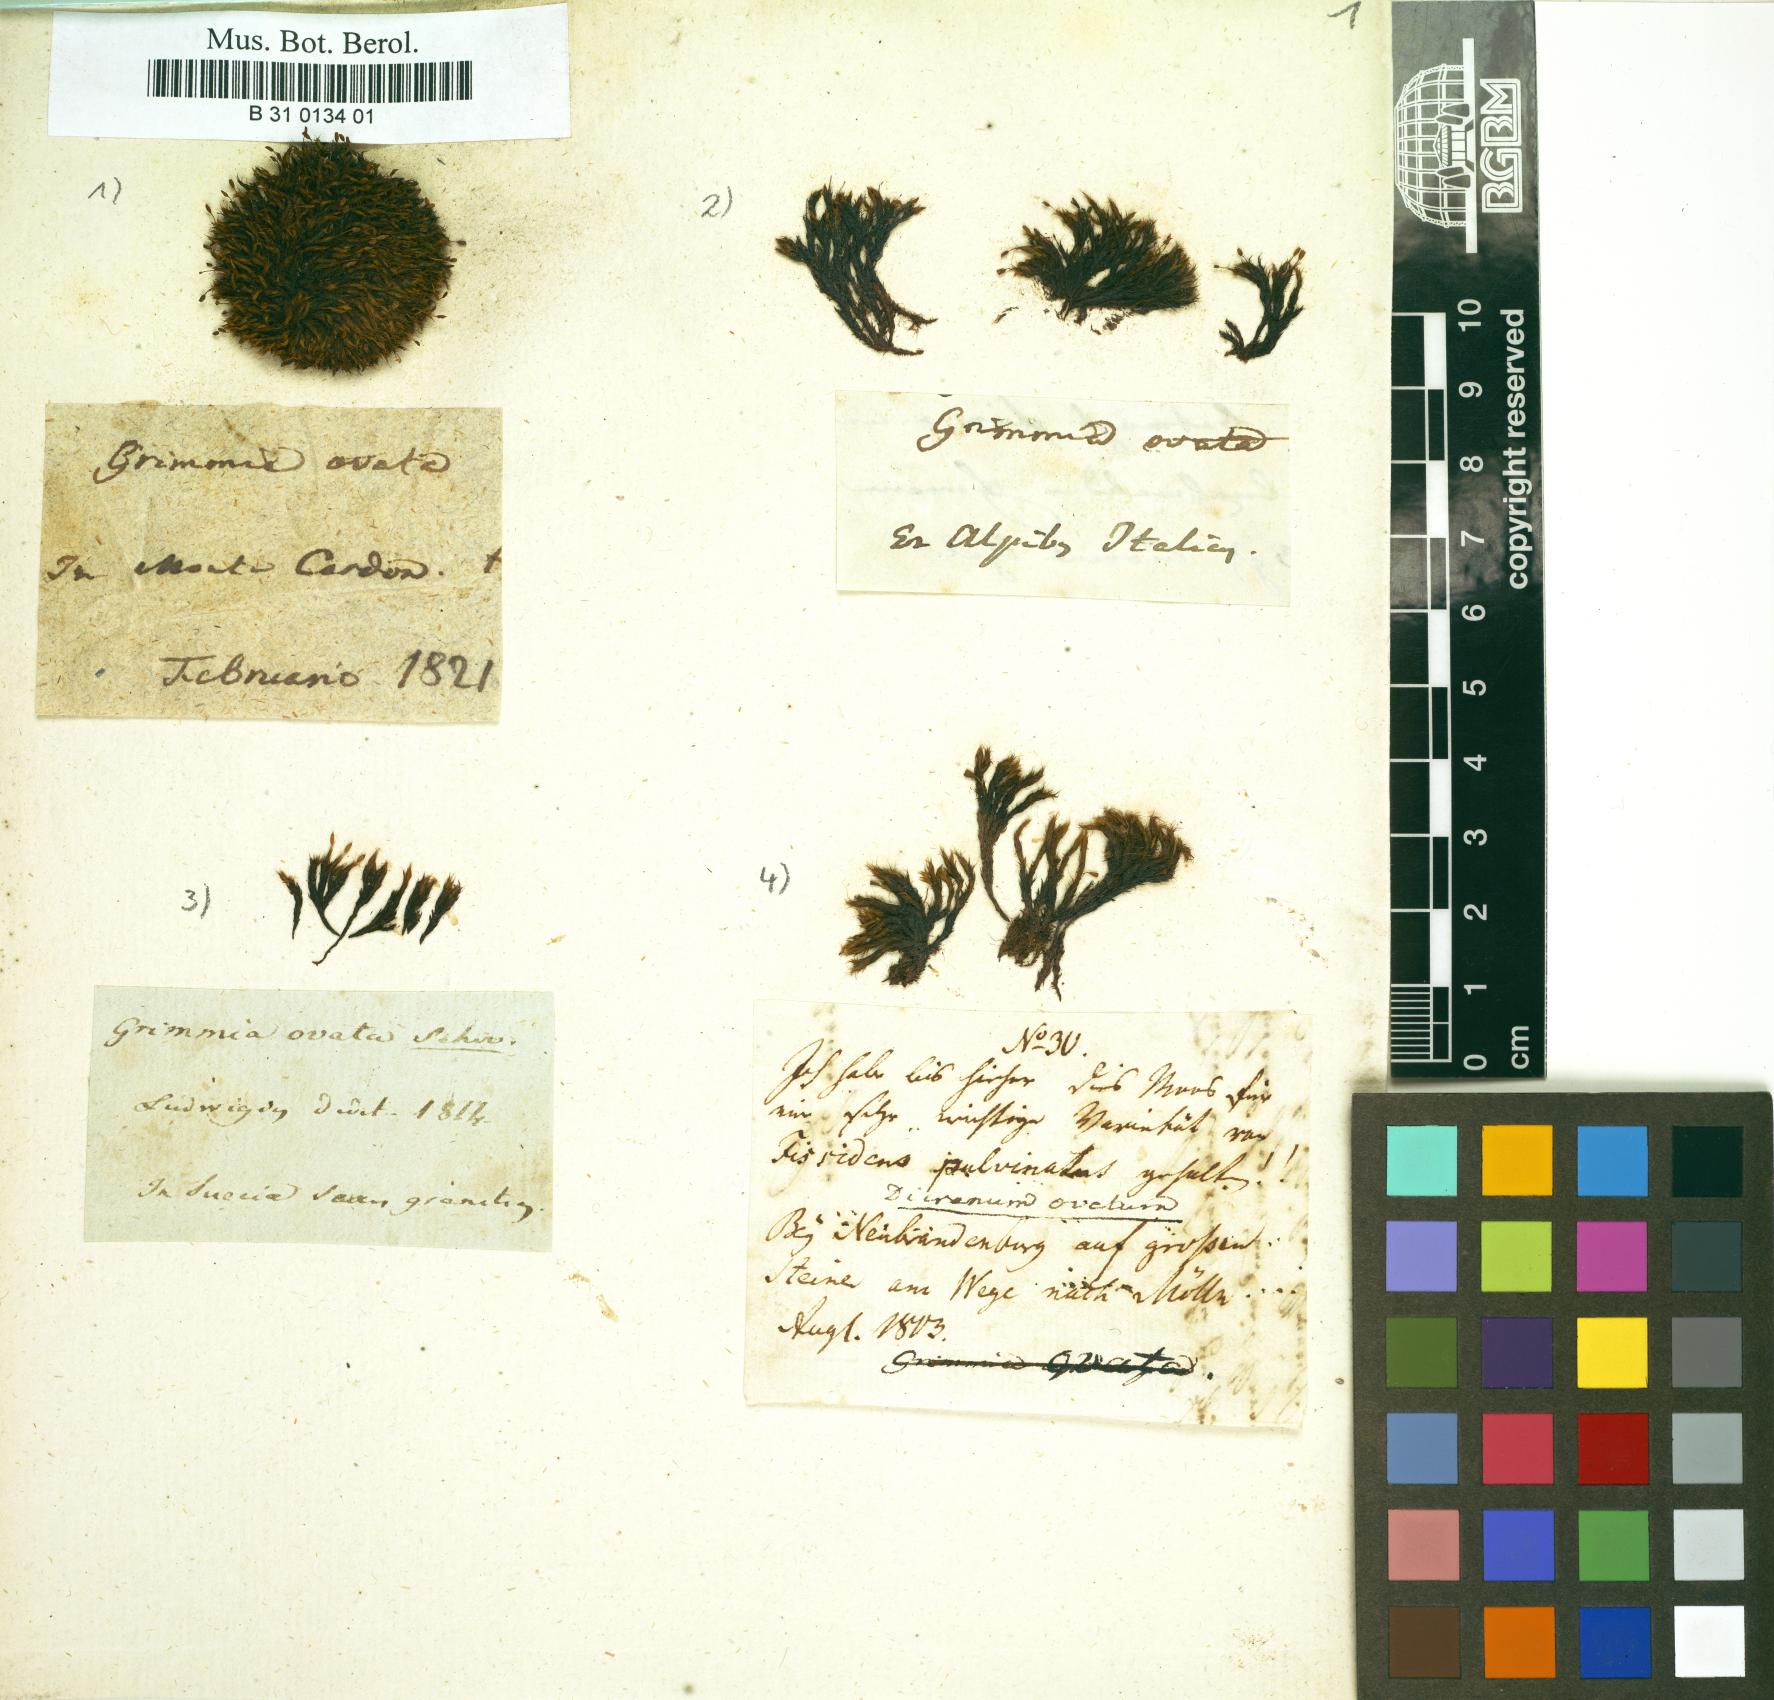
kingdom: Plantae
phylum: Bryophyta
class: Bryopsida
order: Grimmiales
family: Grimmiaceae
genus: Grimmia
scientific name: Grimmia ovalis
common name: Oval grimmia
